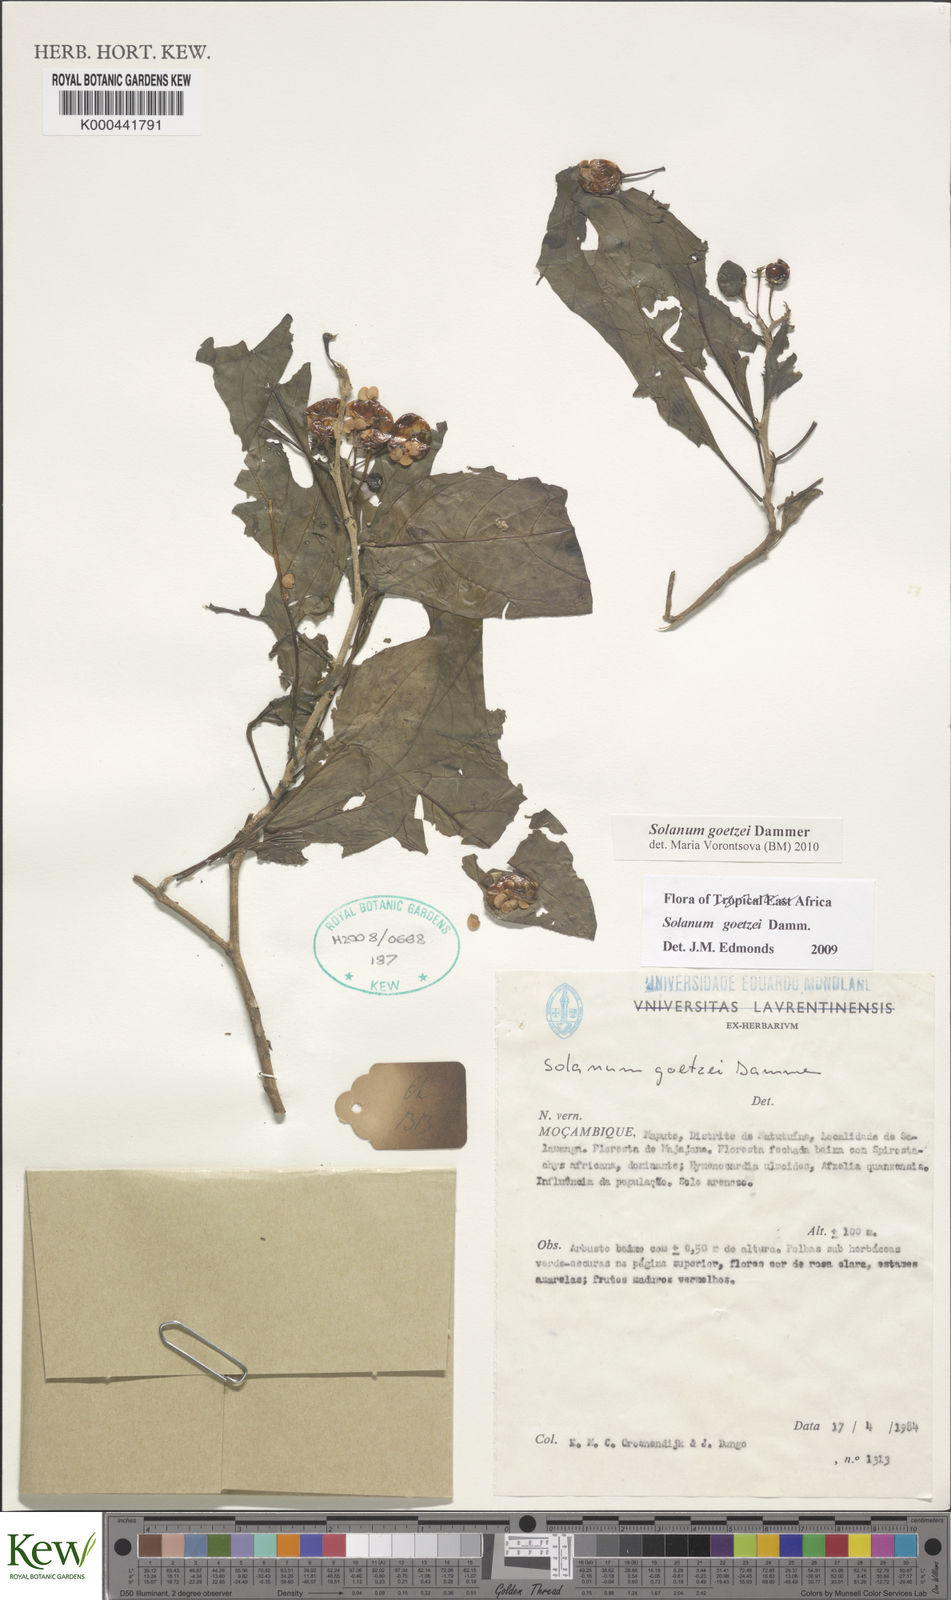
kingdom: Plantae
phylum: Tracheophyta
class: Magnoliopsida
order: Solanales
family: Solanaceae
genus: Solanum
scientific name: Solanum goetzei
